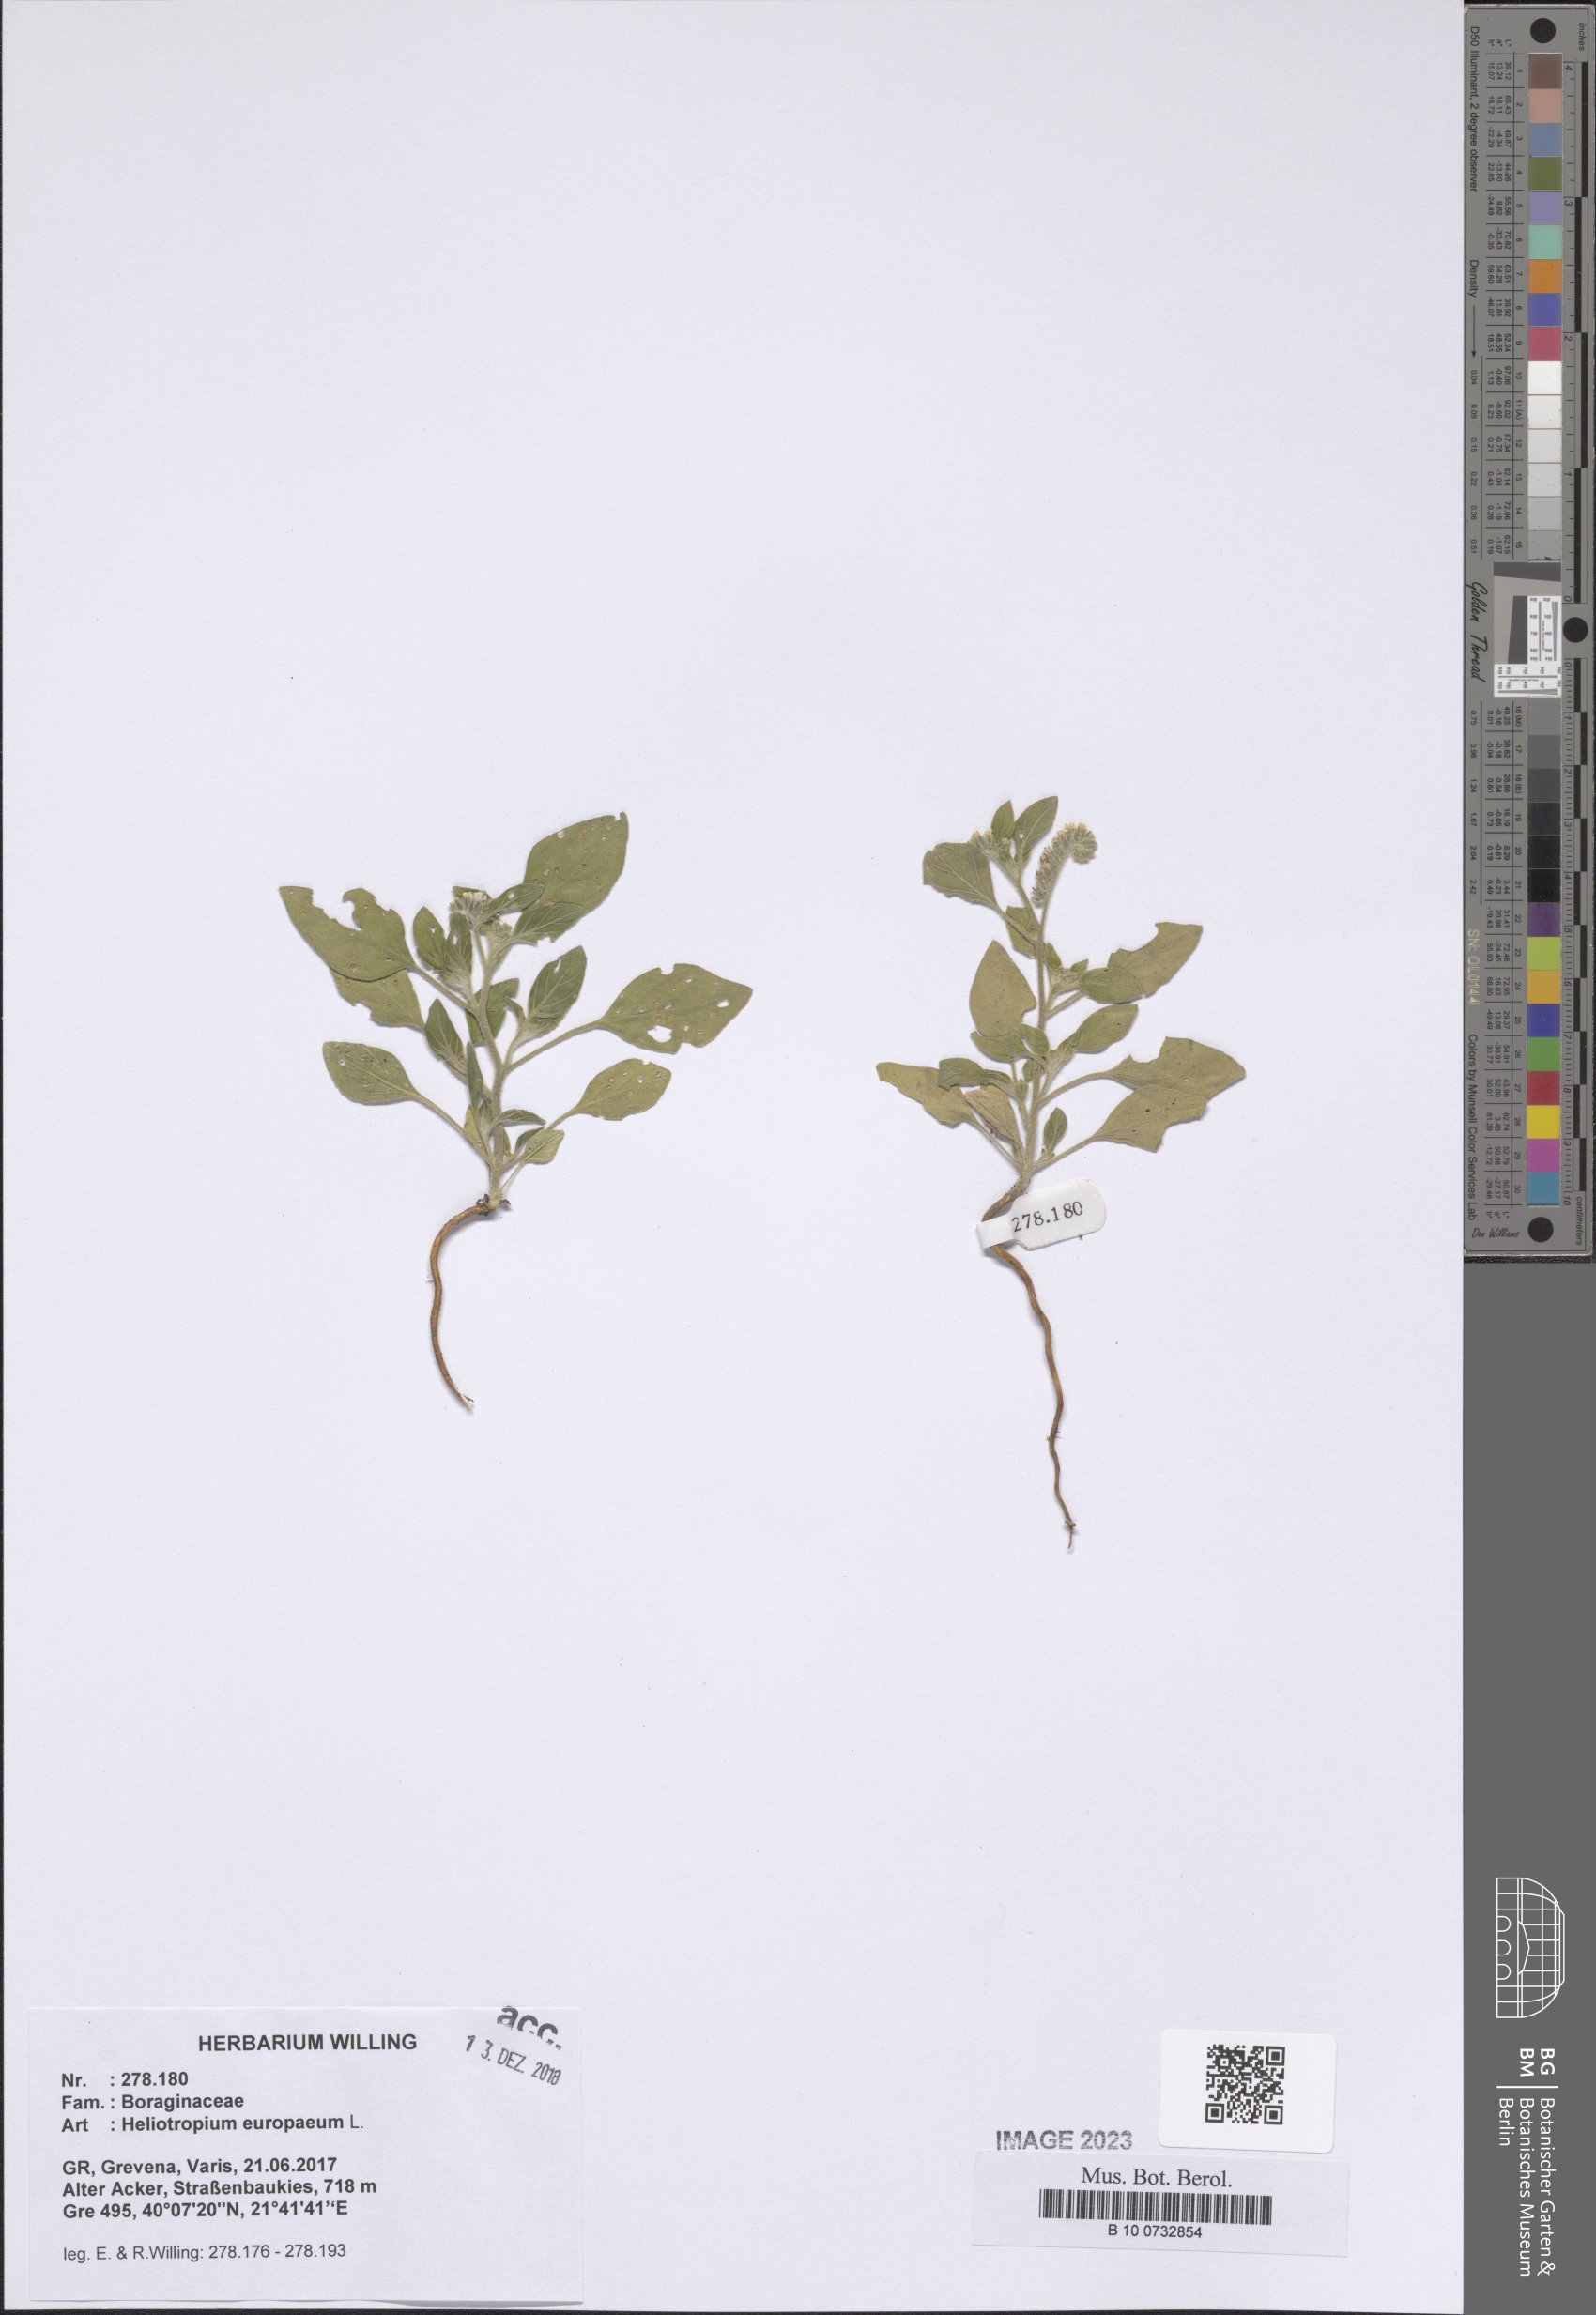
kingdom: Plantae
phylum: Tracheophyta
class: Magnoliopsida
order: Boraginales
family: Heliotropiaceae
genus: Heliotropium
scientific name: Heliotropium europaeum
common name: European heliotrope
